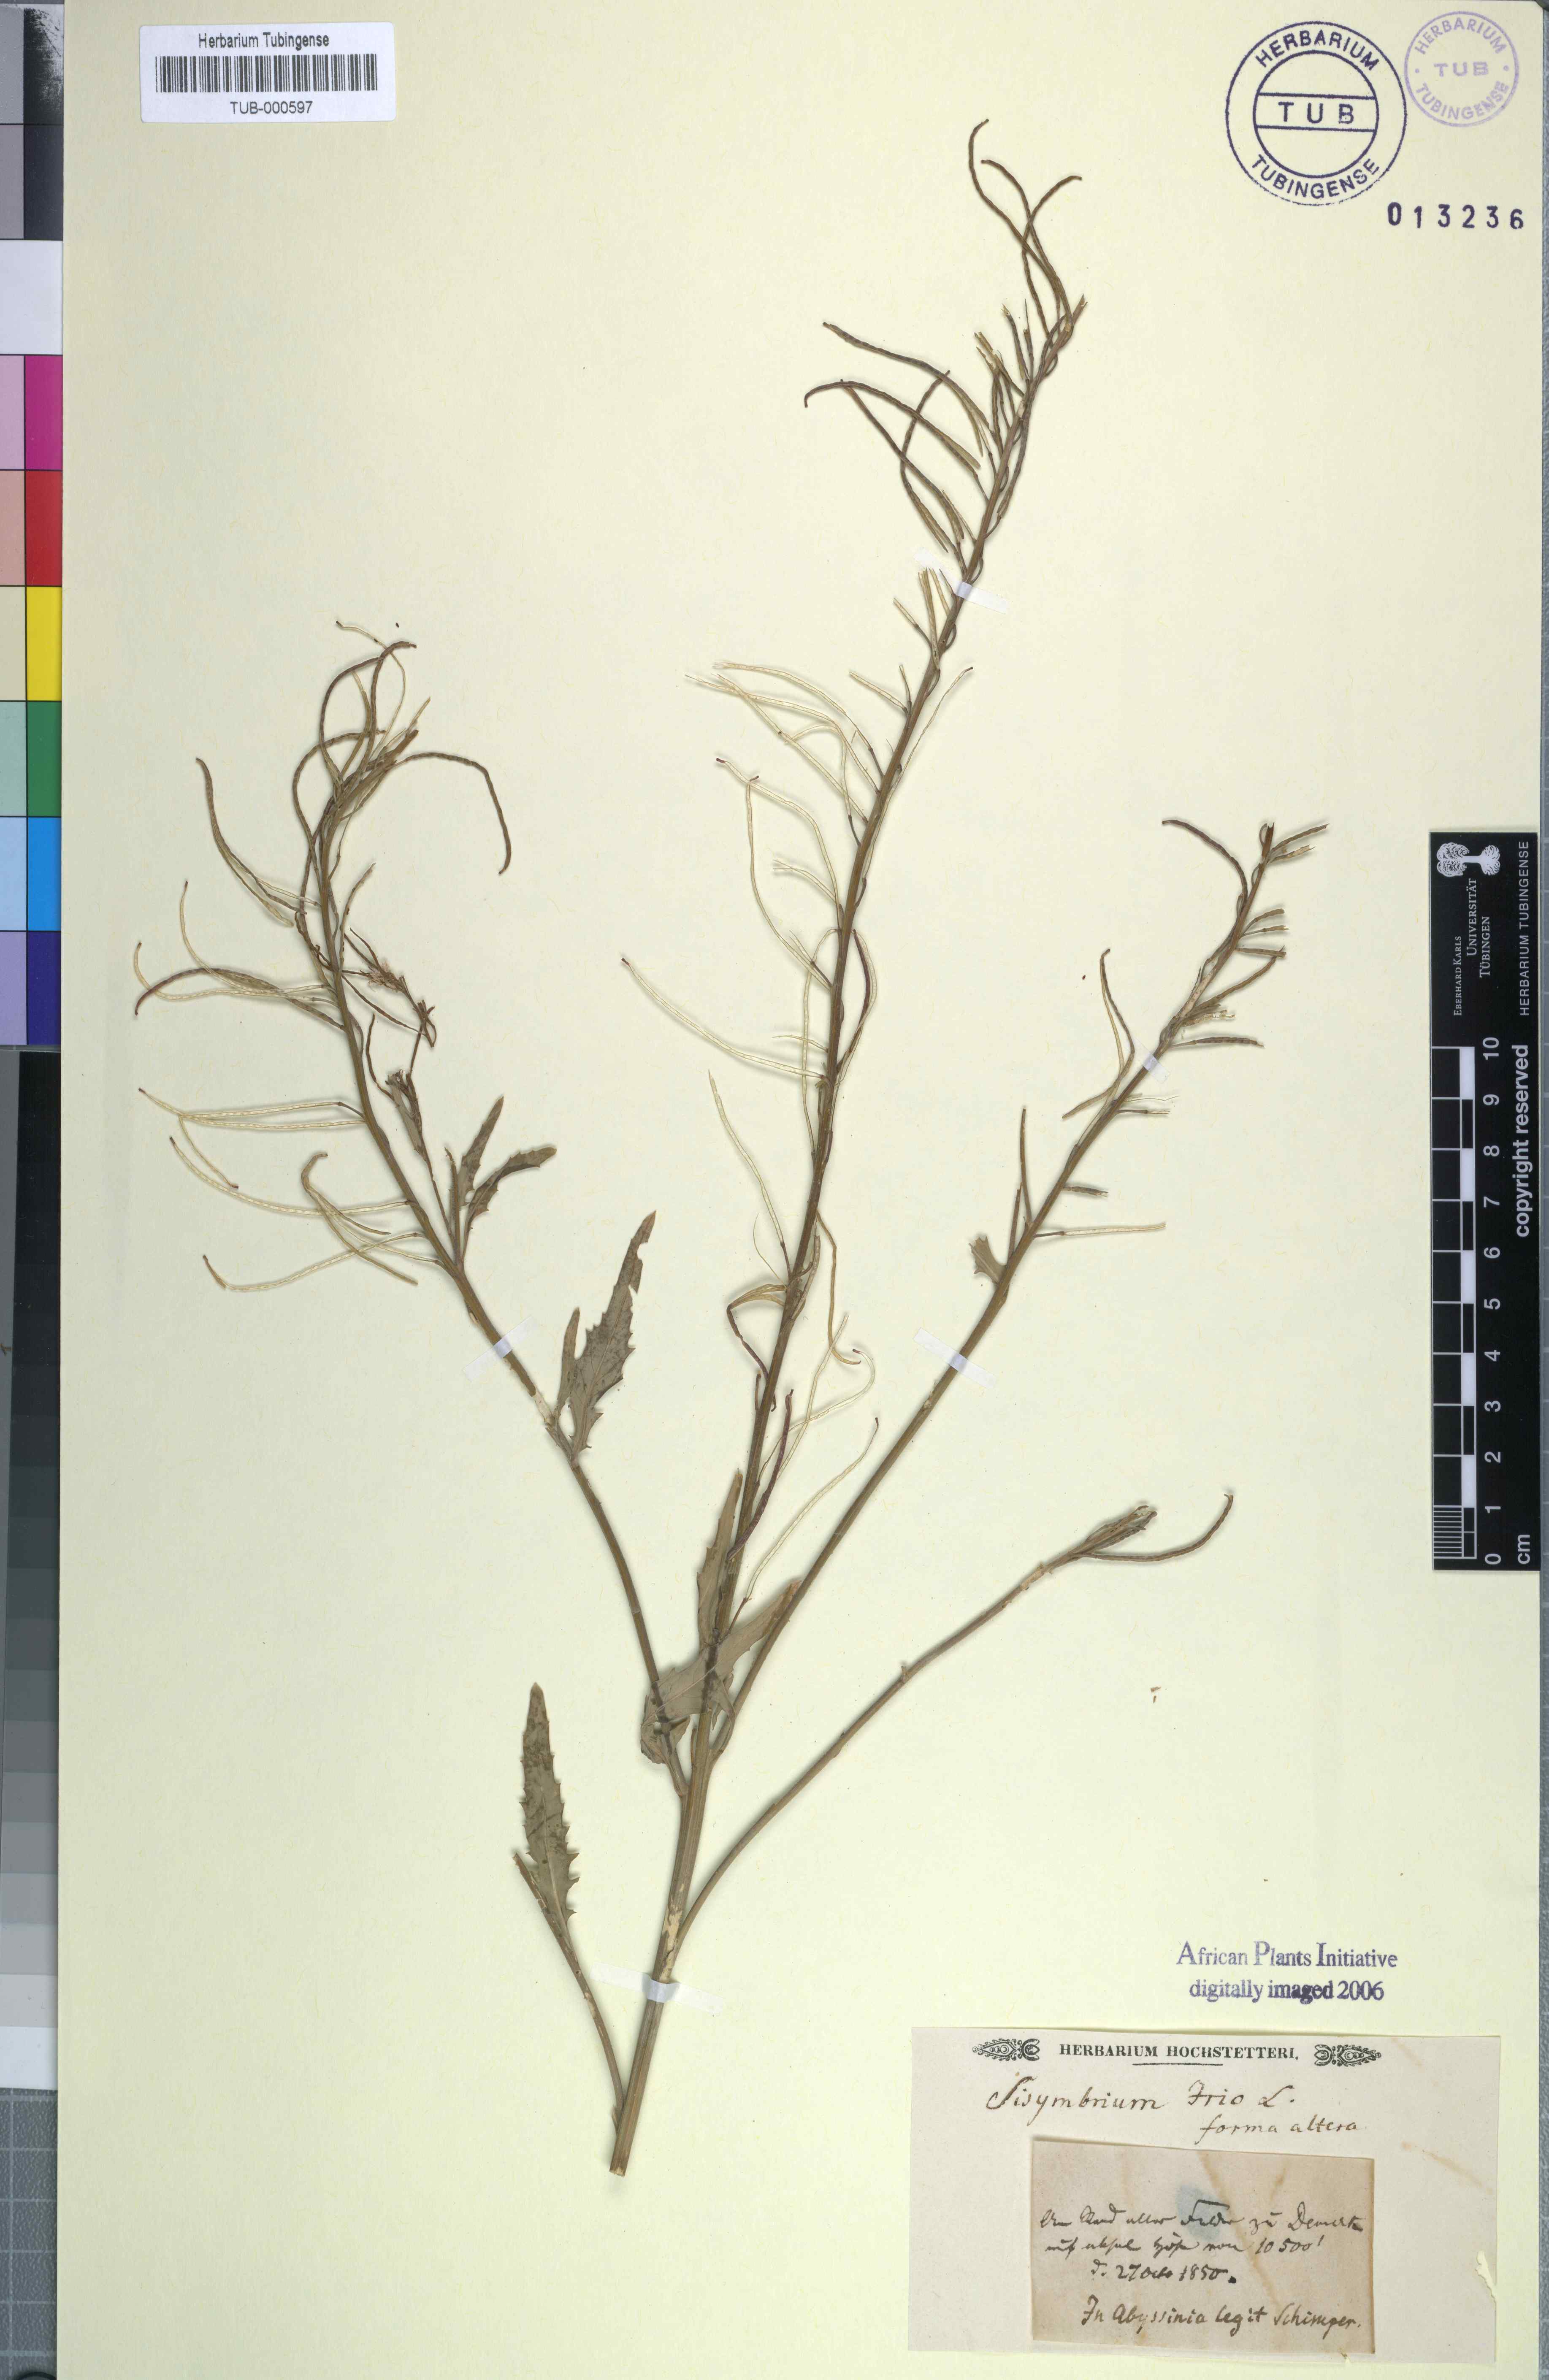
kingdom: Plantae
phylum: Tracheophyta
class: Magnoliopsida
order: Brassicales
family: Brassicaceae
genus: Sisymbrium
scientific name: Sisymbrium irio
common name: London rocket
